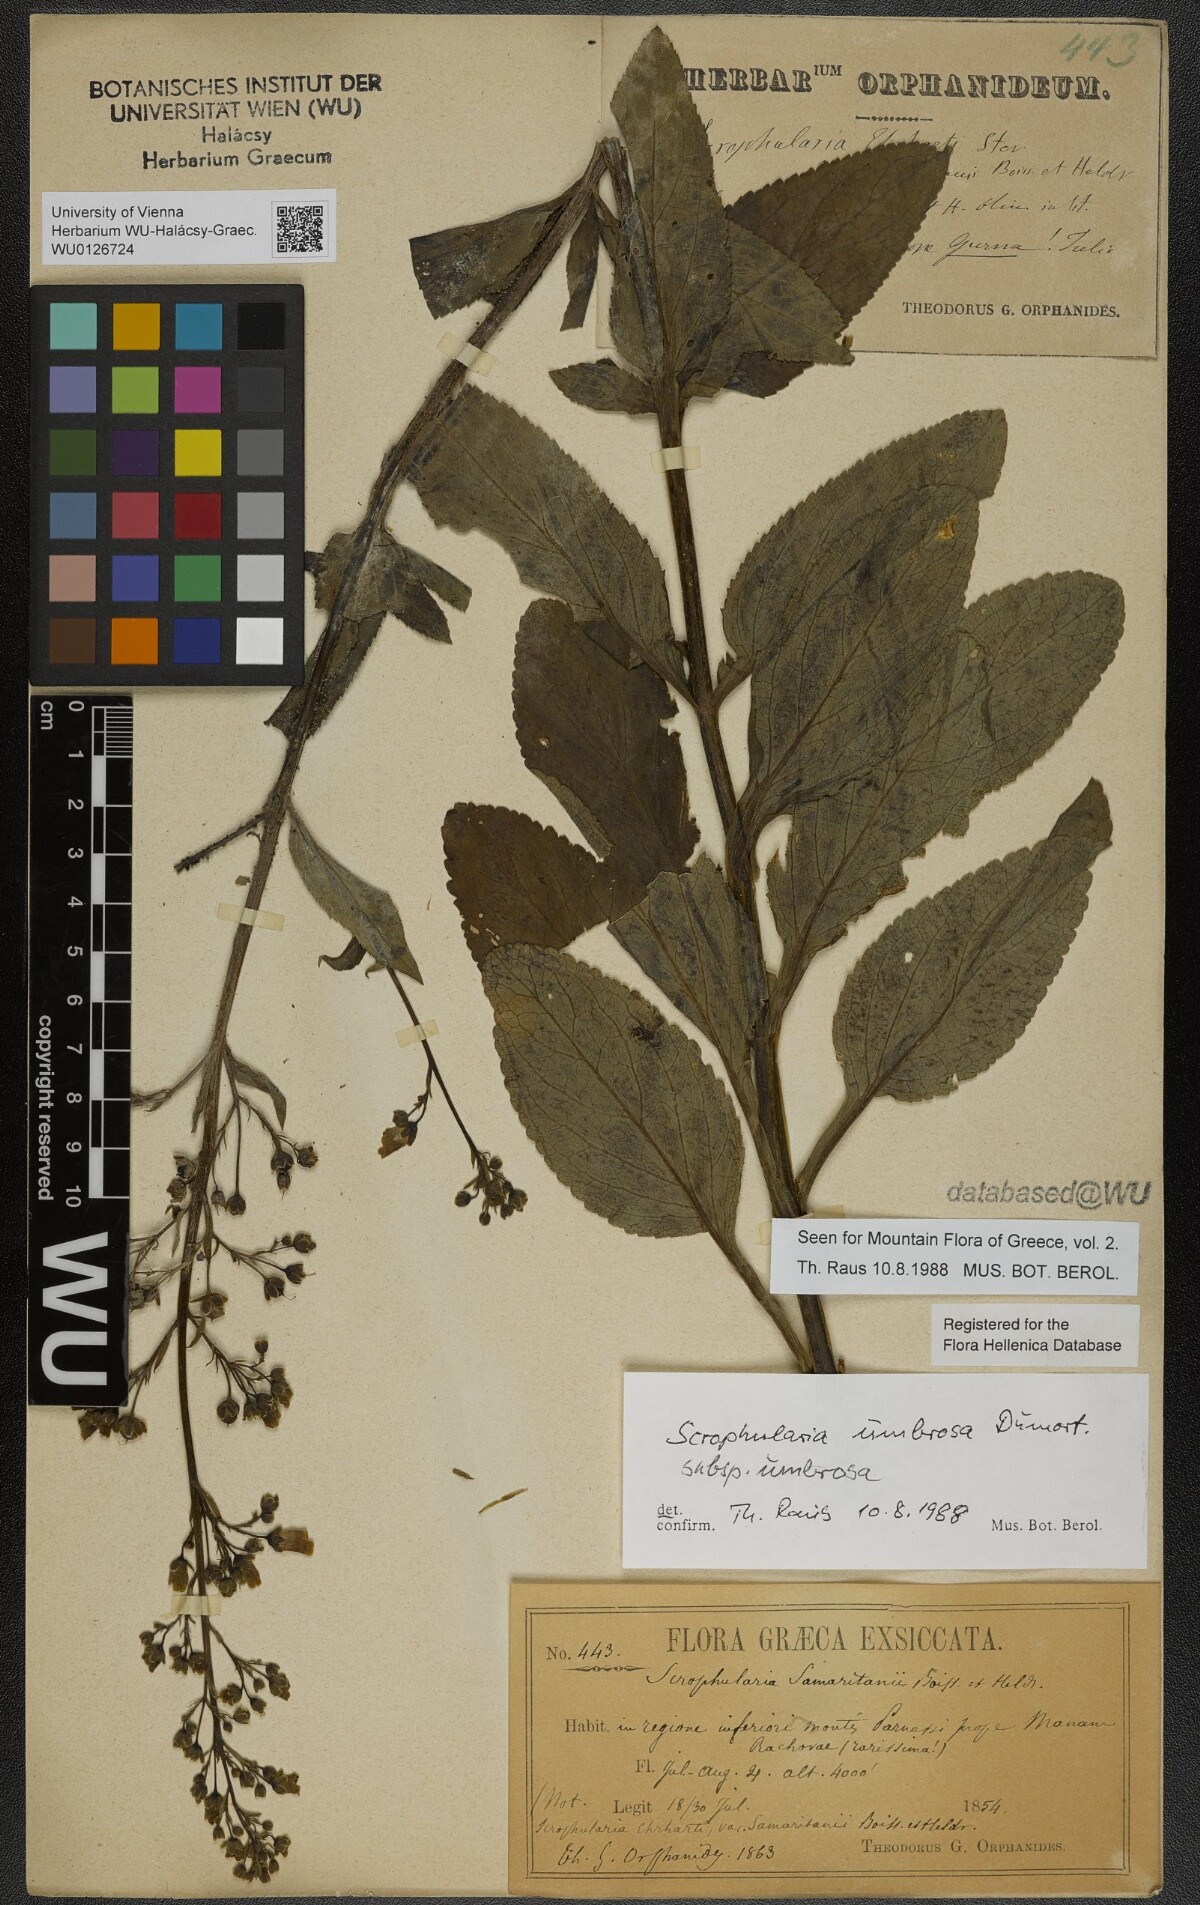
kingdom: Plantae
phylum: Tracheophyta
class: Magnoliopsida
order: Lamiales
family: Scrophulariaceae
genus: Scrophularia
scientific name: Scrophularia umbrosa
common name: Green figwort
